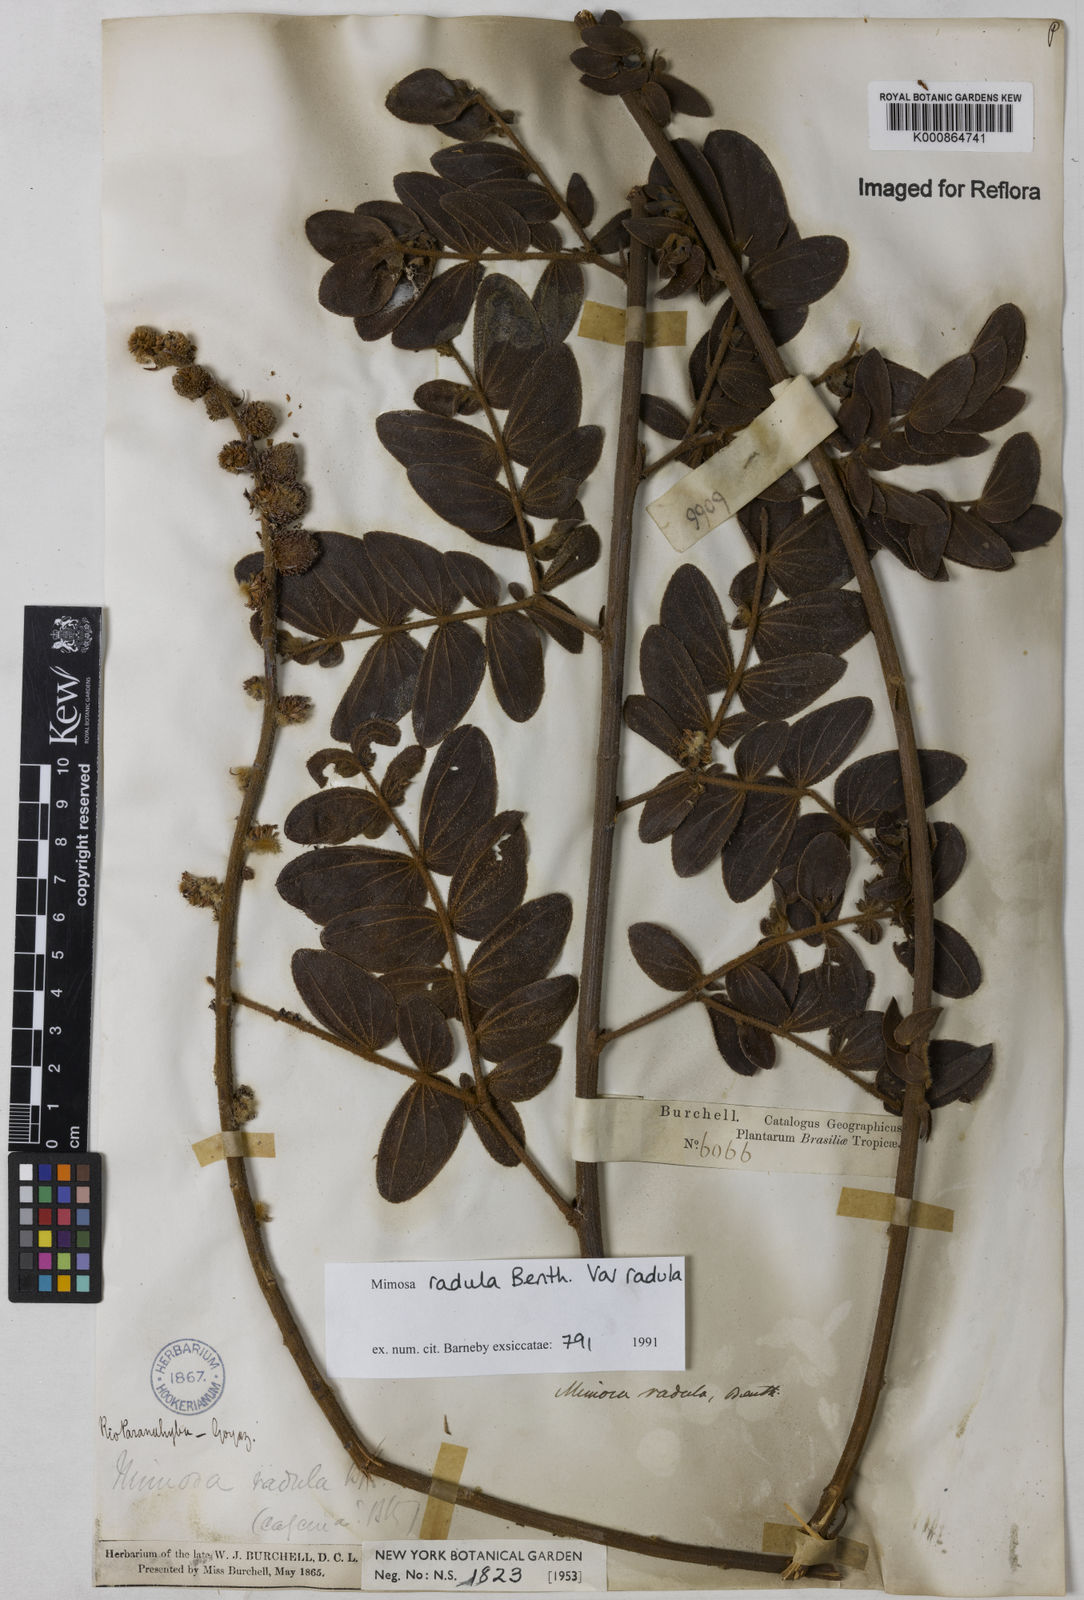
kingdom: Plantae
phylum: Tracheophyta
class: Magnoliopsida
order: Fabales
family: Fabaceae
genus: Mimosa
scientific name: Mimosa radula
